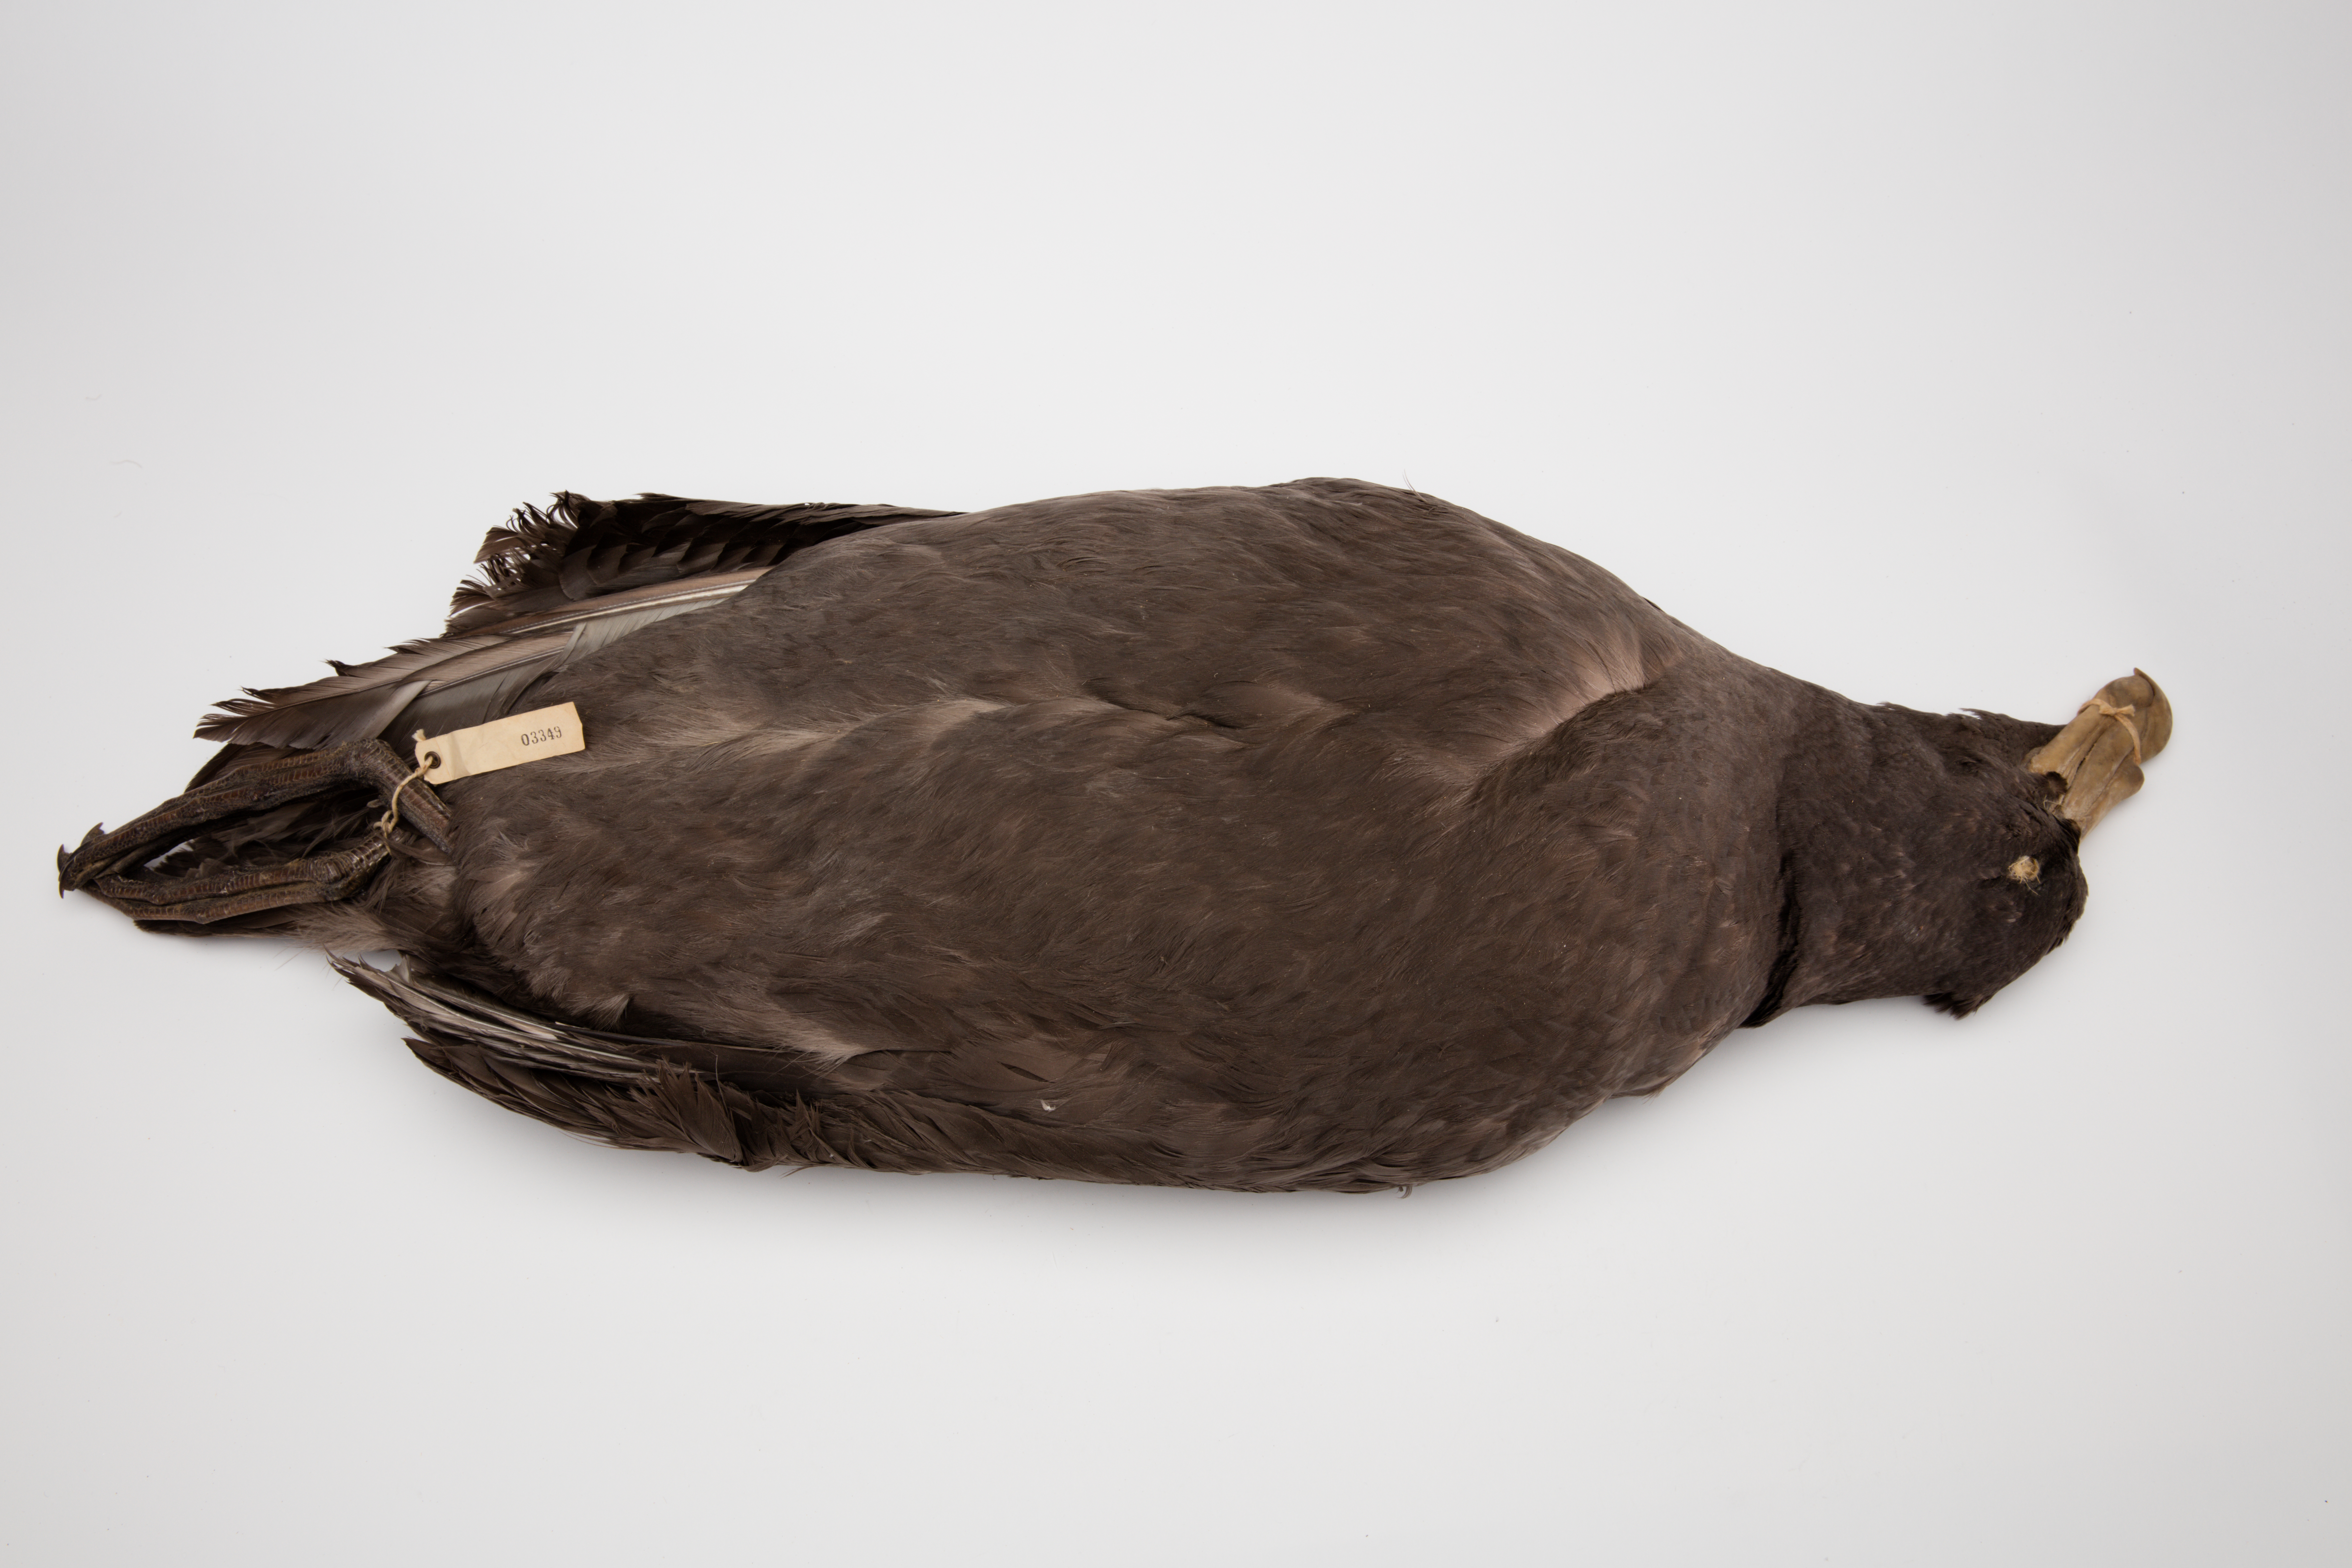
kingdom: Animalia
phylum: Chordata
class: Aves
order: Procellariiformes
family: Procellariidae
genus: Macronectes
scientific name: Macronectes giganteus
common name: Southern giant petrel
